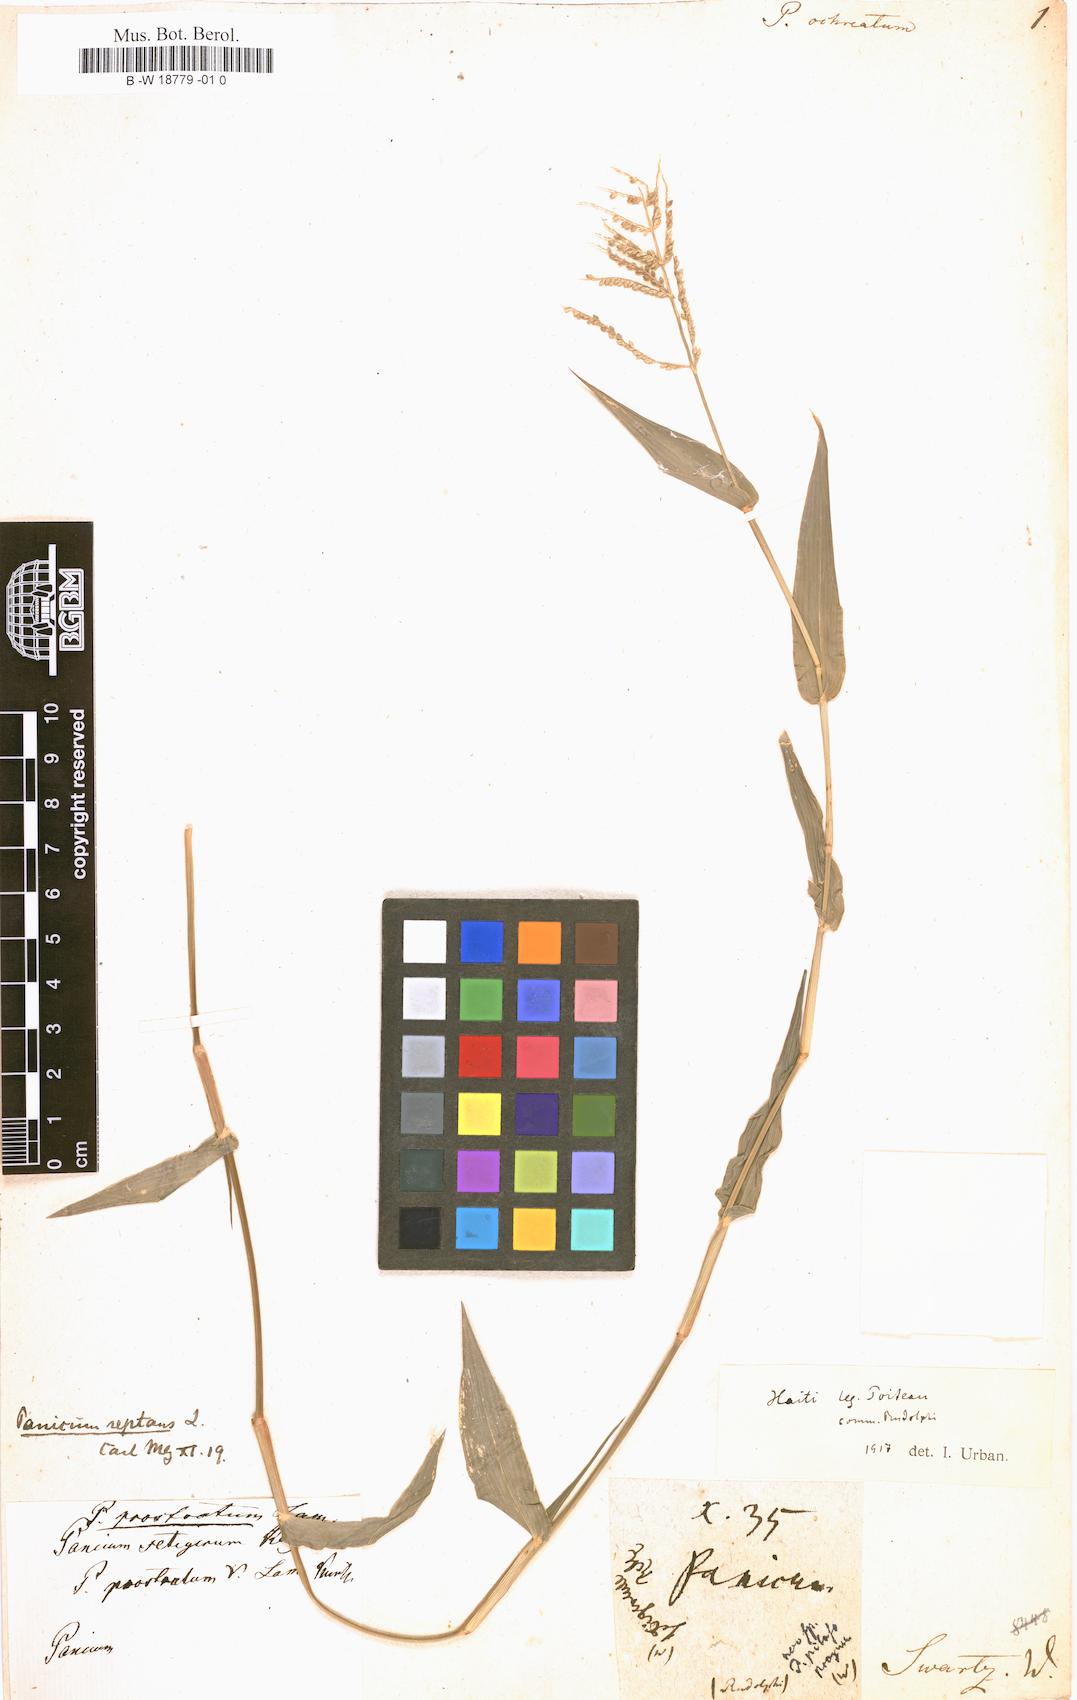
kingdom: Plantae
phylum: Tracheophyta
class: Liliopsida
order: Poales
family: Poaceae
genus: Panicum
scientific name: Panicum
